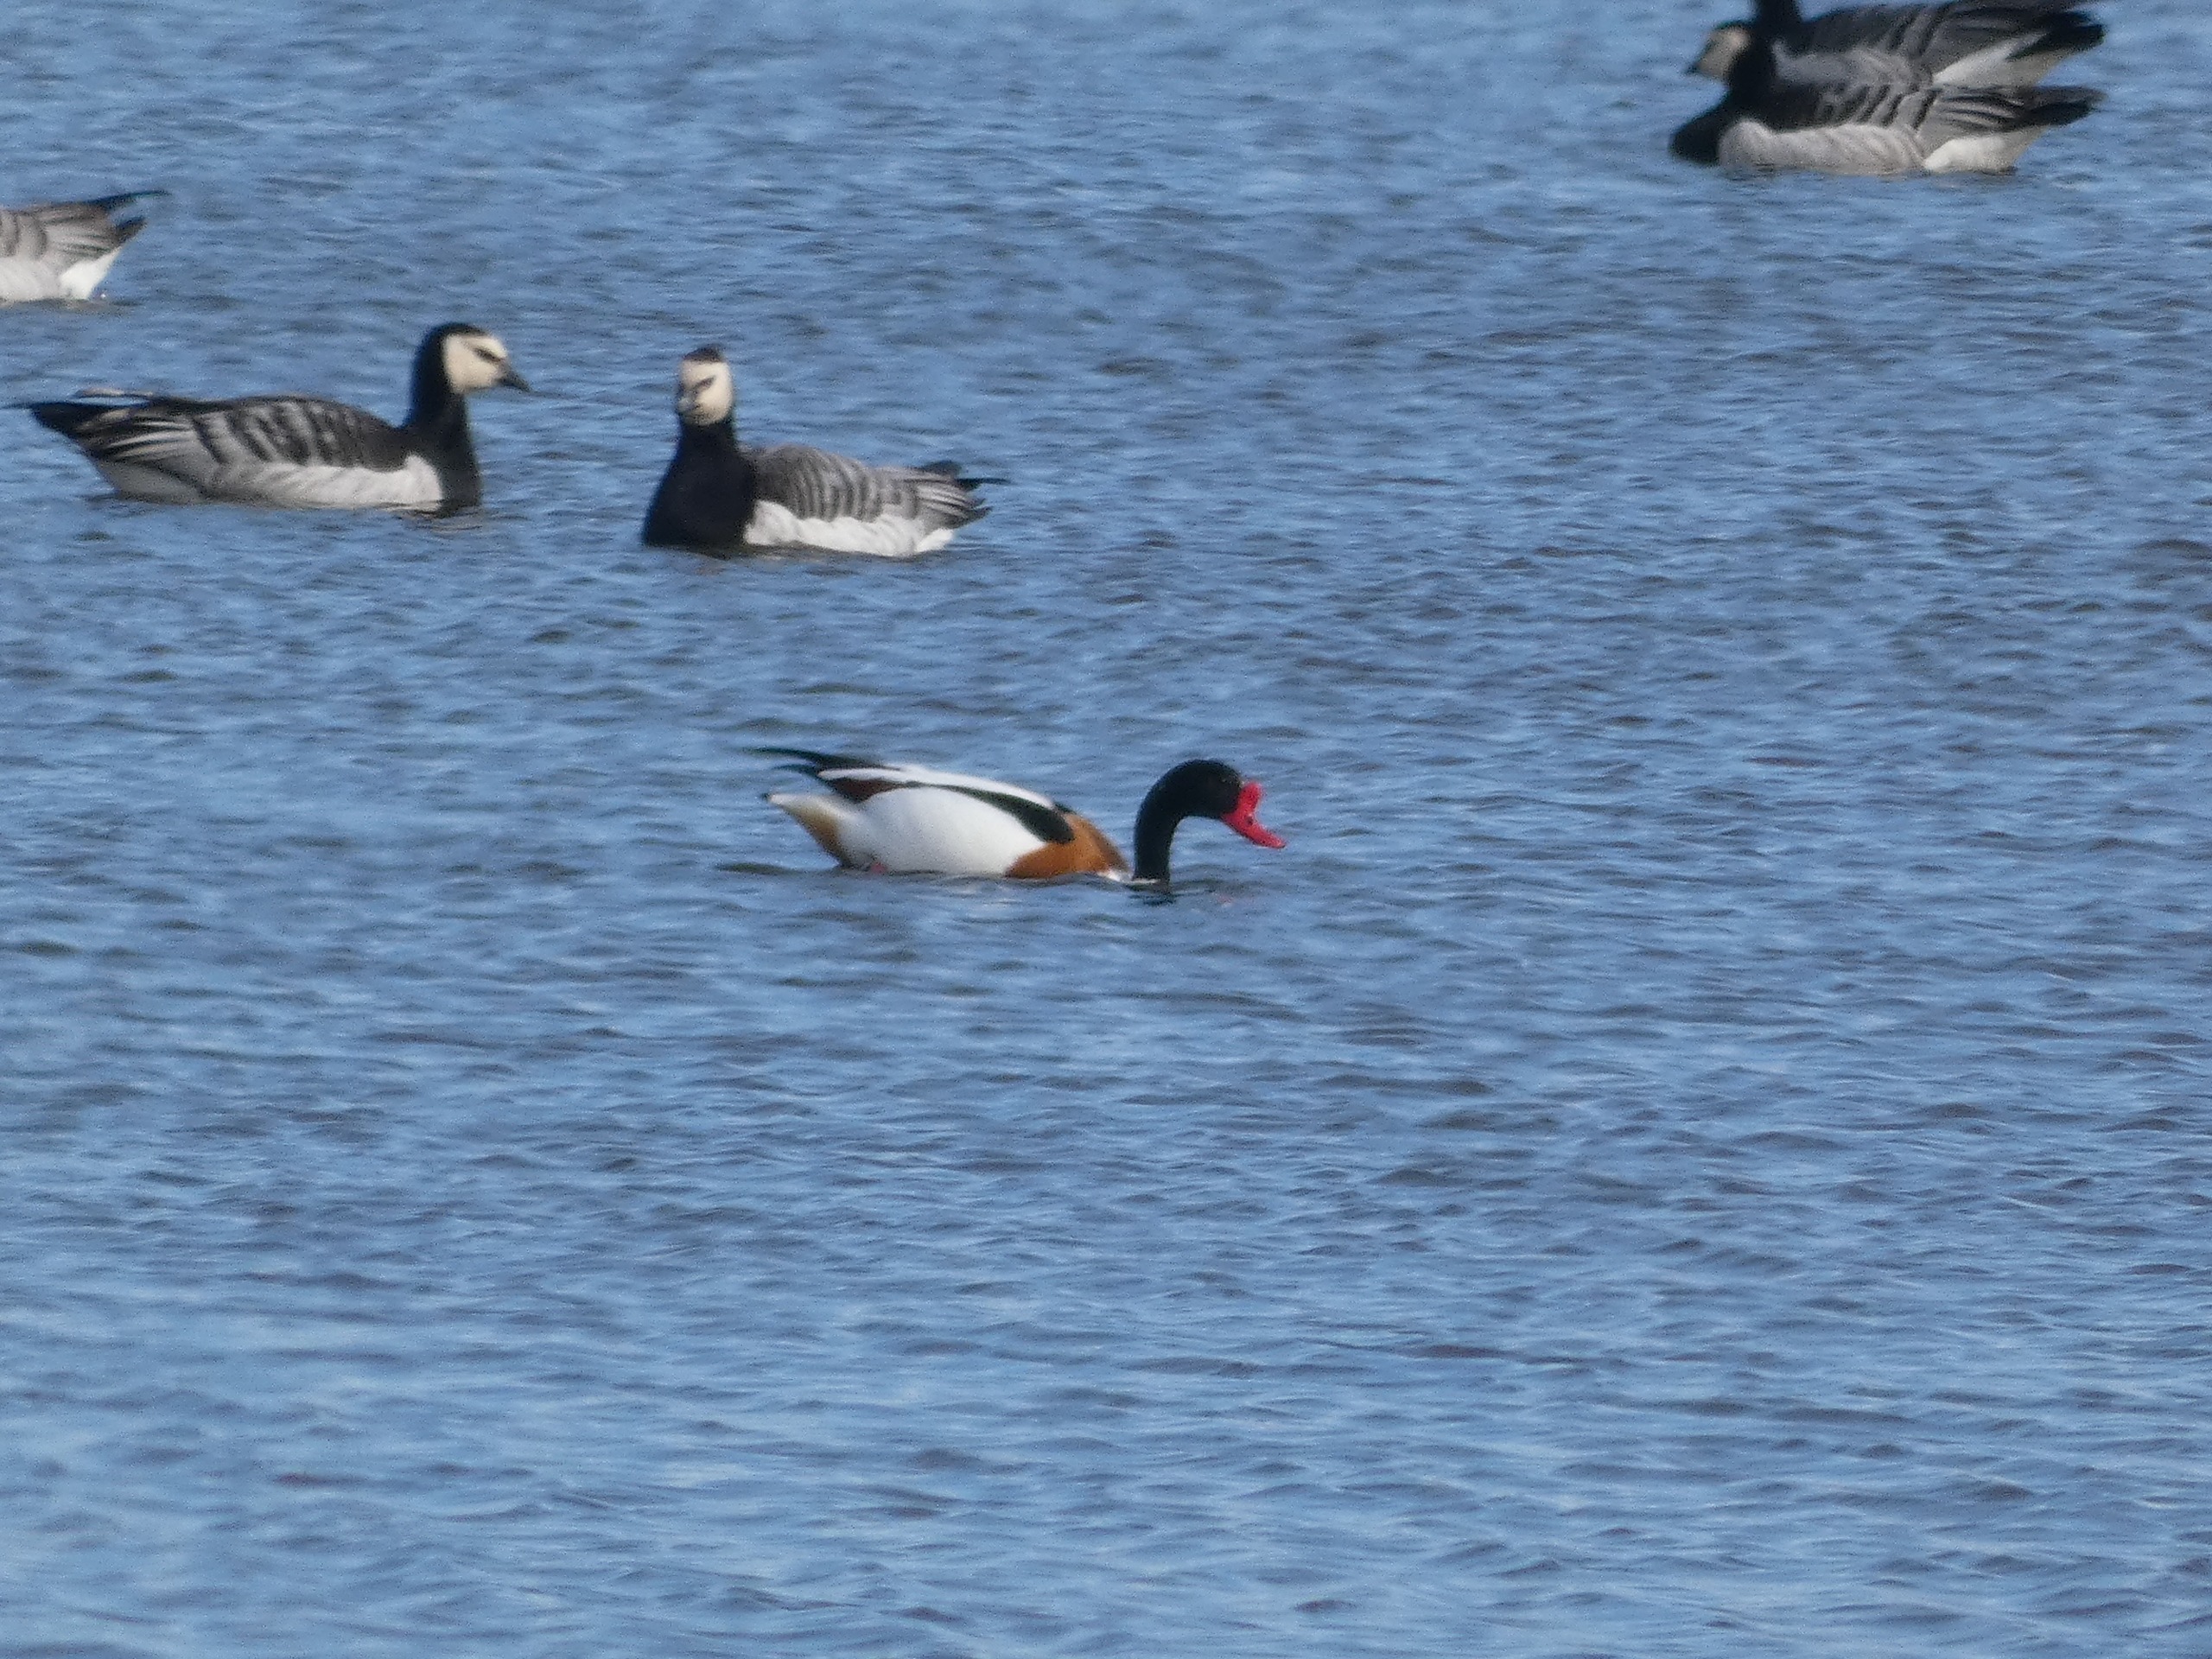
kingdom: Animalia
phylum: Chordata
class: Aves
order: Anseriformes
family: Anatidae
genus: Tadorna
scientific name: Tadorna tadorna
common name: Gravand
